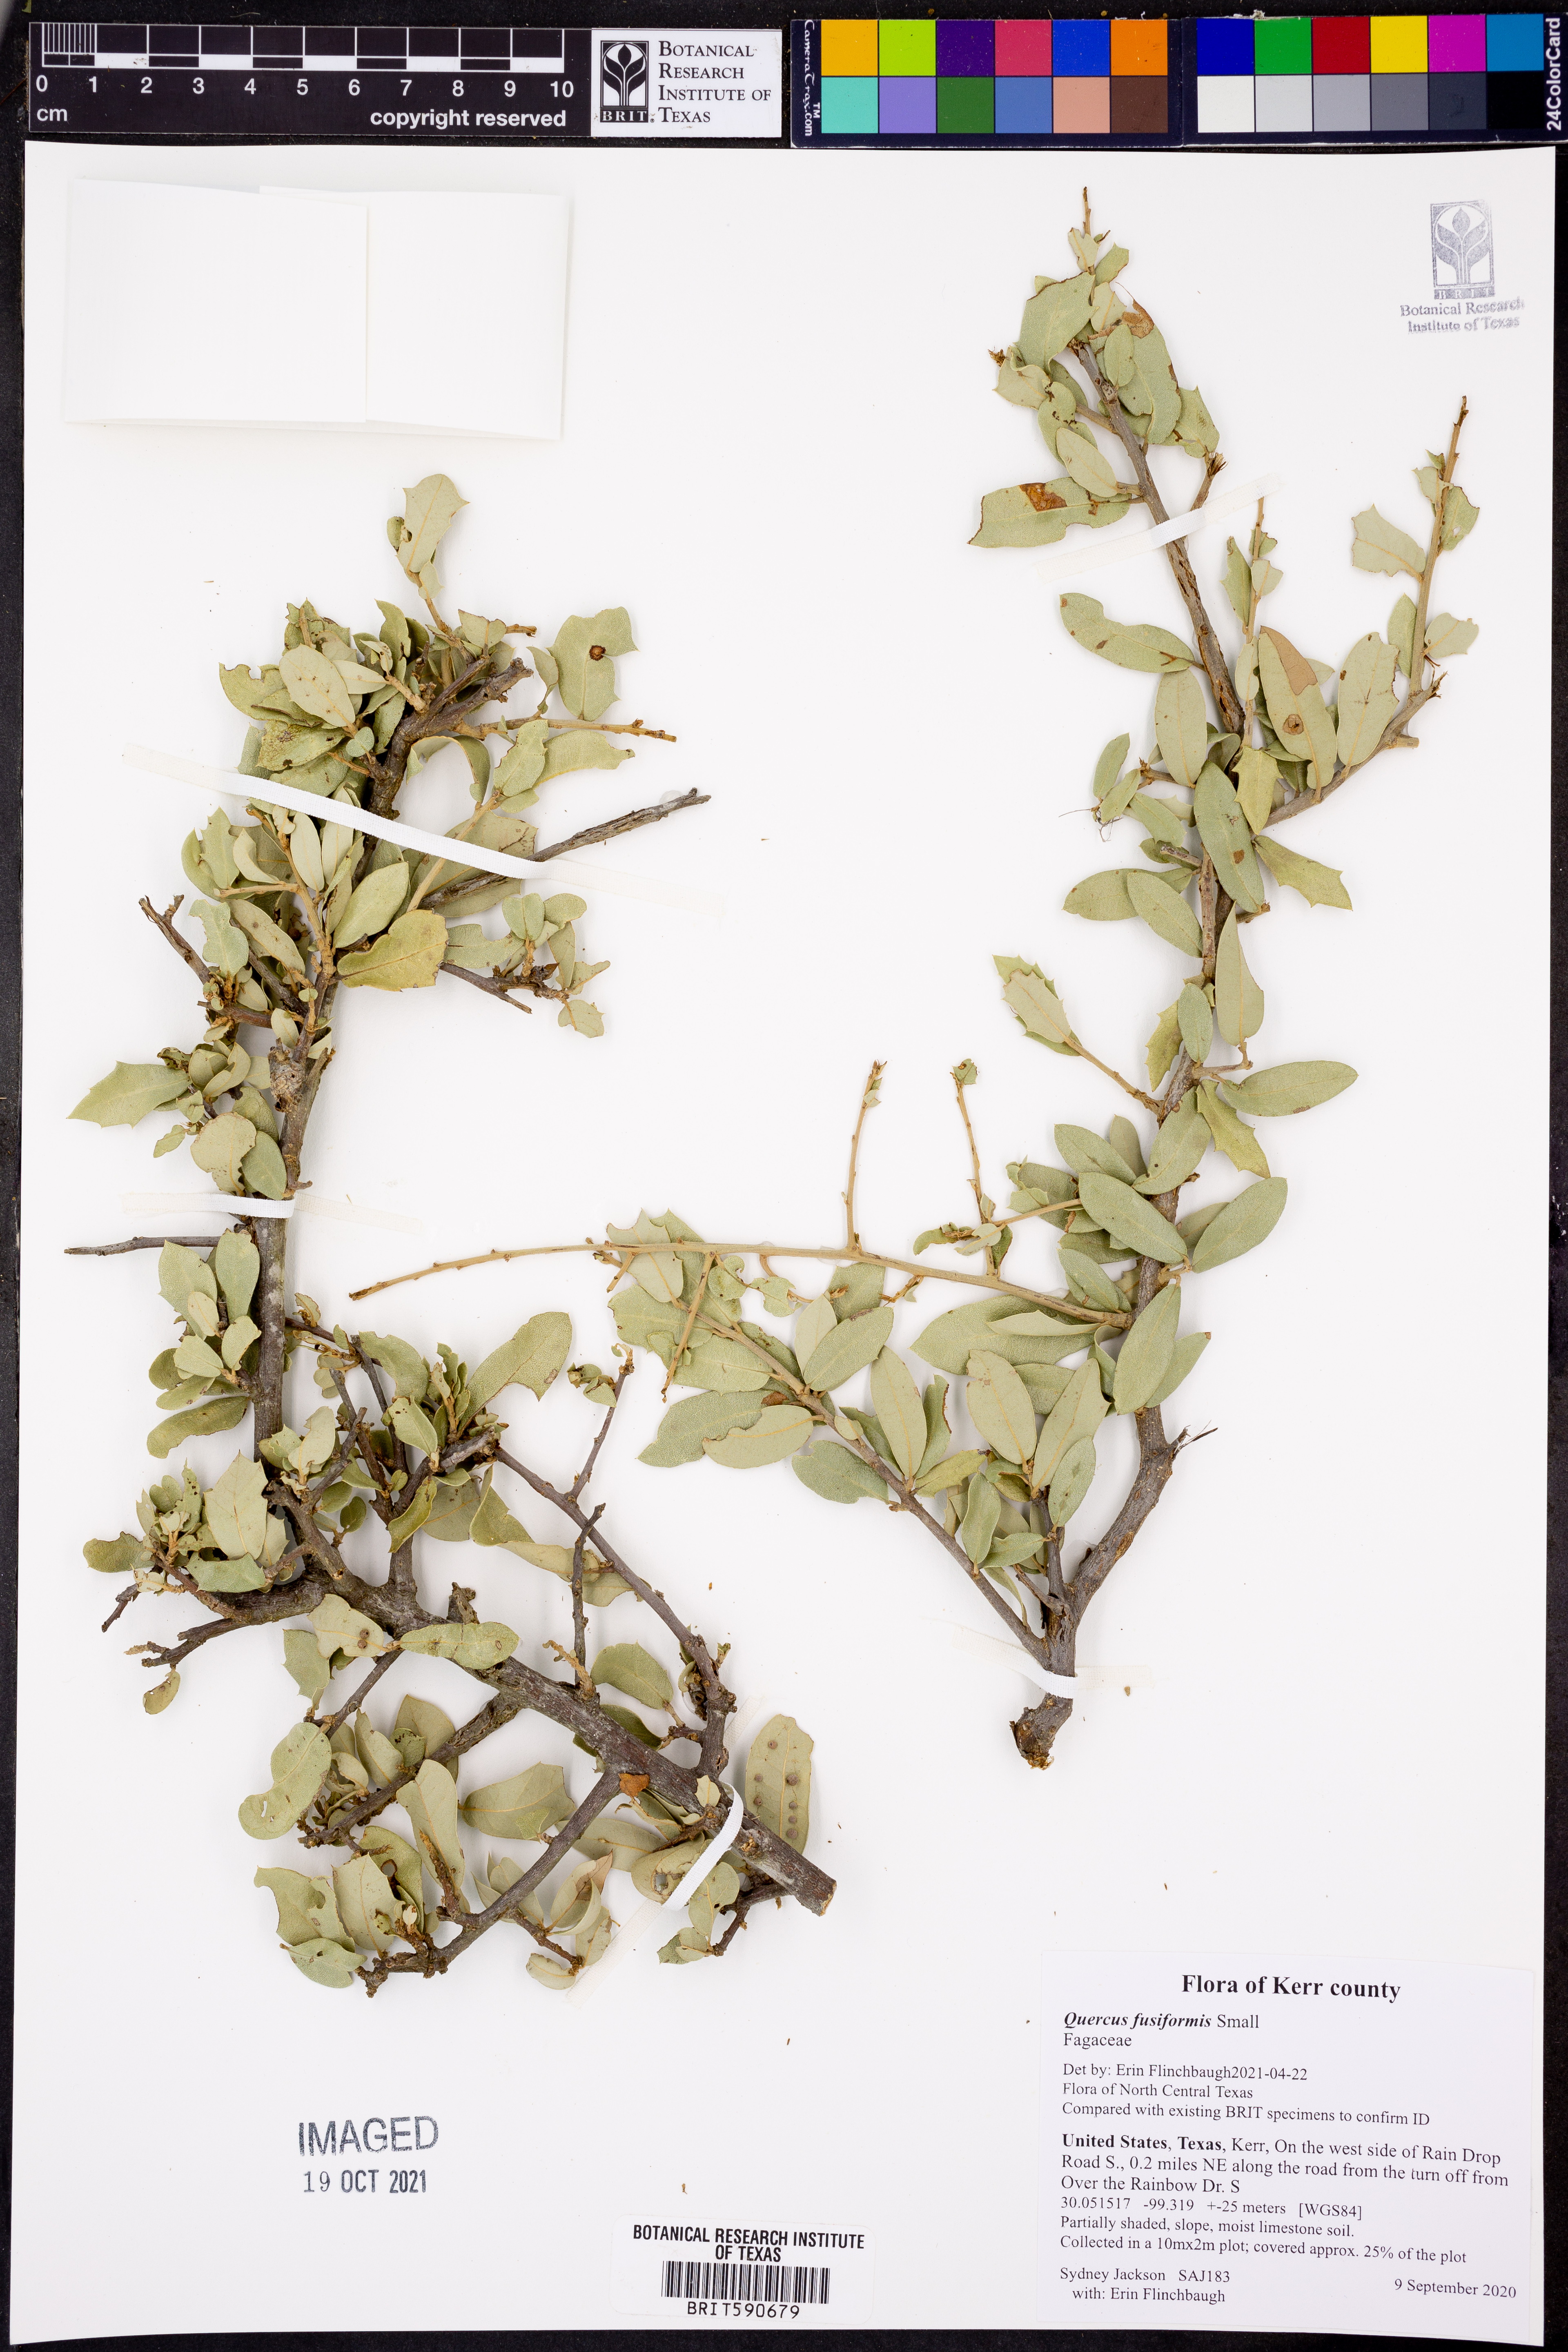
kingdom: Plantae
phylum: Tracheophyta
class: Magnoliopsida
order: Fagales
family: Fagaceae
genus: Quercus
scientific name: Quercus fusiformis
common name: Texas live oak
